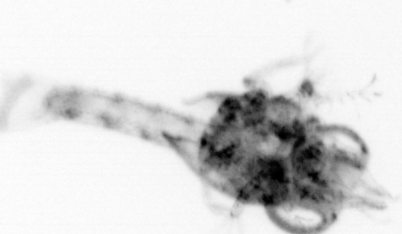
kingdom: Animalia
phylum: Arthropoda
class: Malacostraca
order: Decapoda
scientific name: Decapoda
